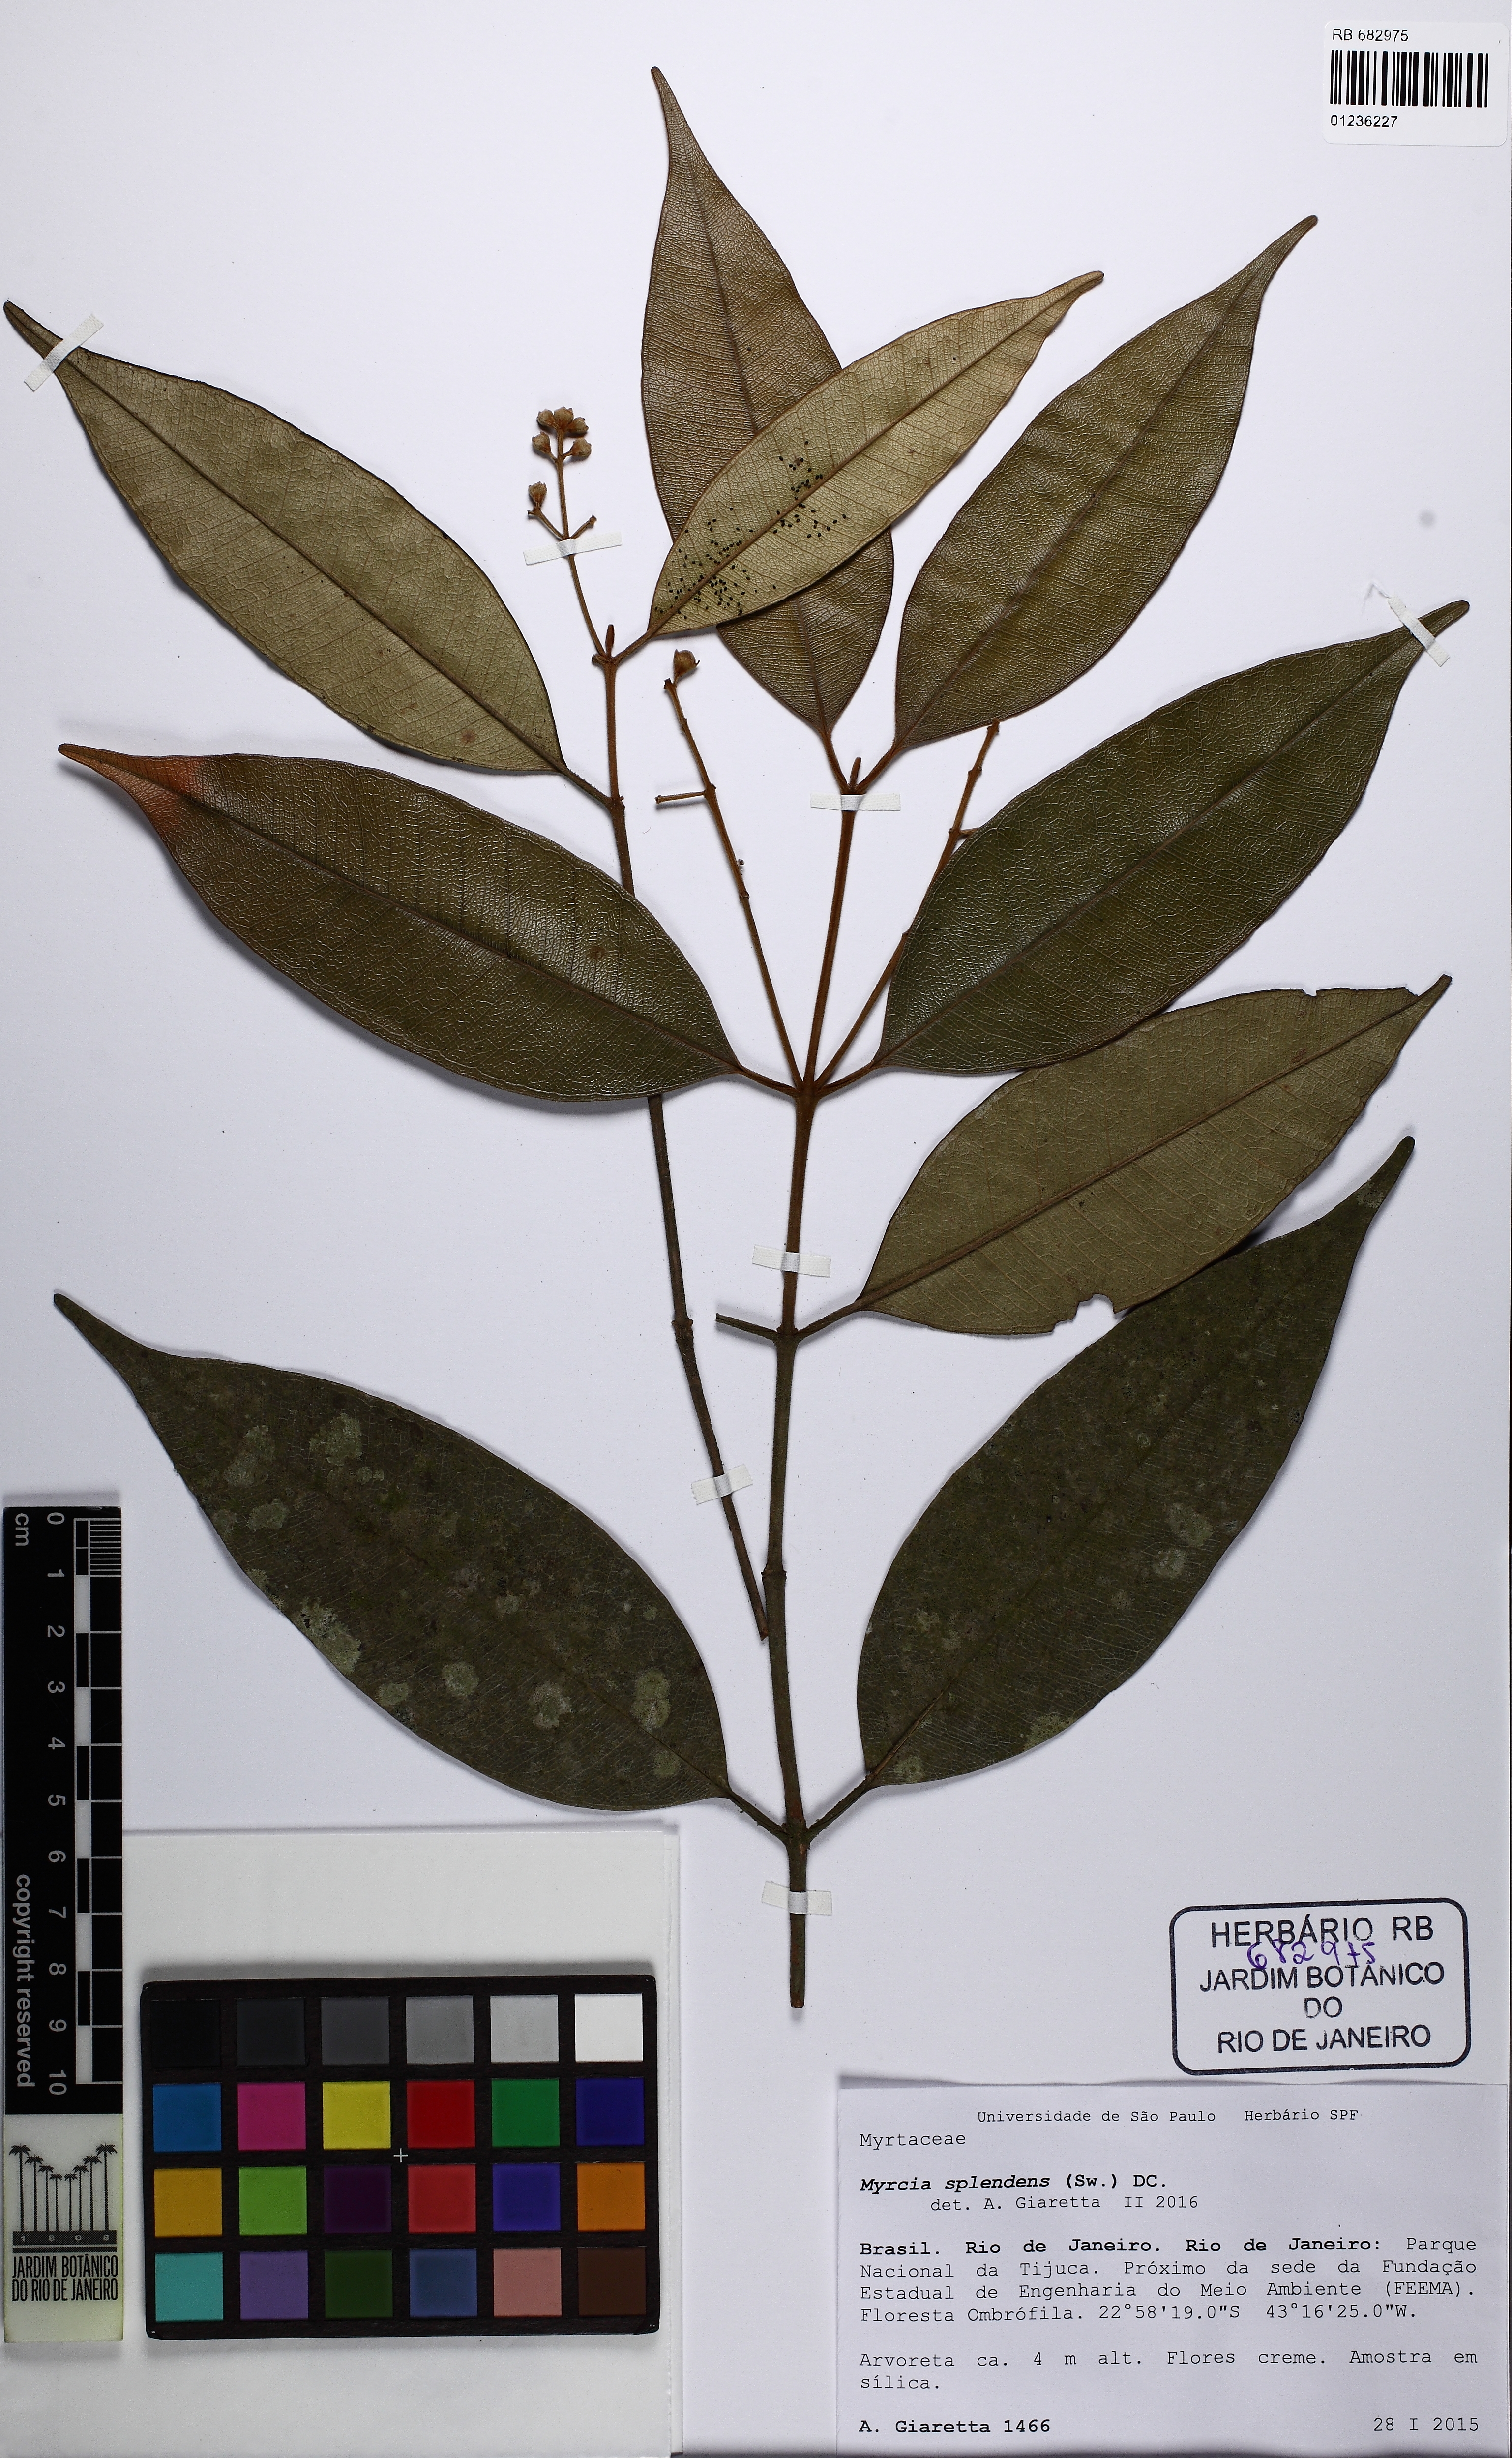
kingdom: Plantae
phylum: Tracheophyta
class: Magnoliopsida
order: Myrtales
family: Myrtaceae
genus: Myrcia
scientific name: Myrcia pubipetala
